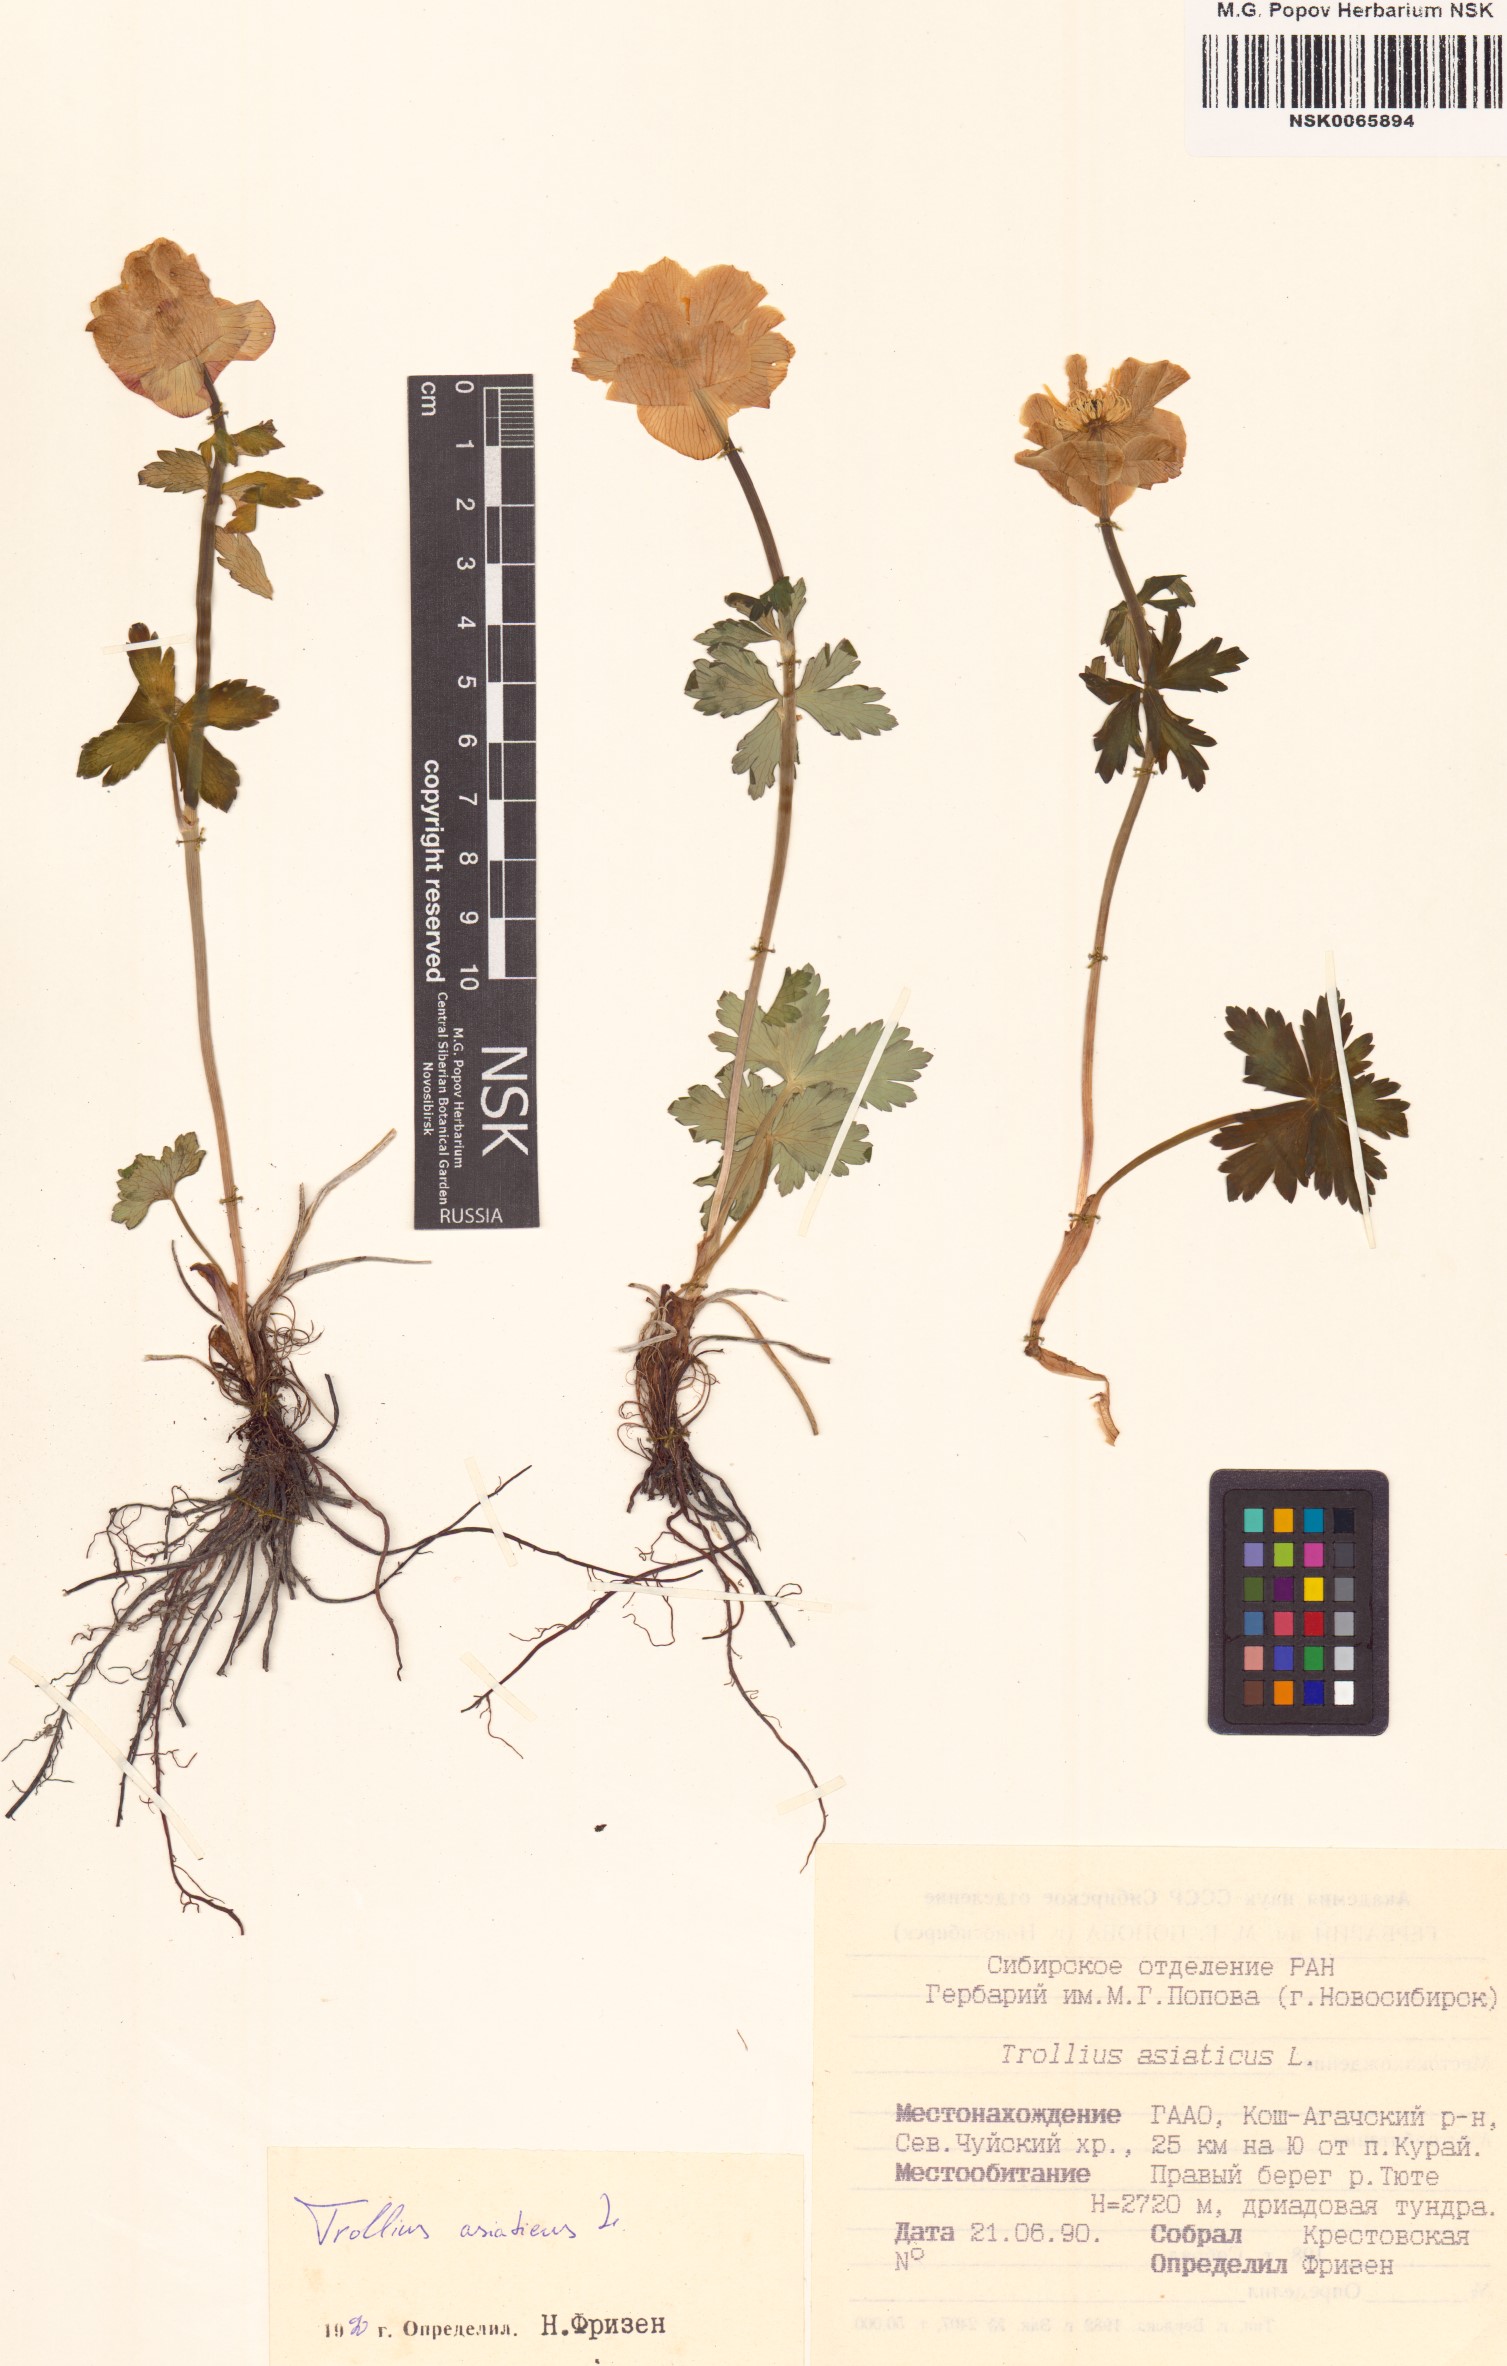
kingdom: Plantae
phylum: Tracheophyta
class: Magnoliopsida
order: Ranunculales
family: Ranunculaceae
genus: Trollius
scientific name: Trollius asiaticus
